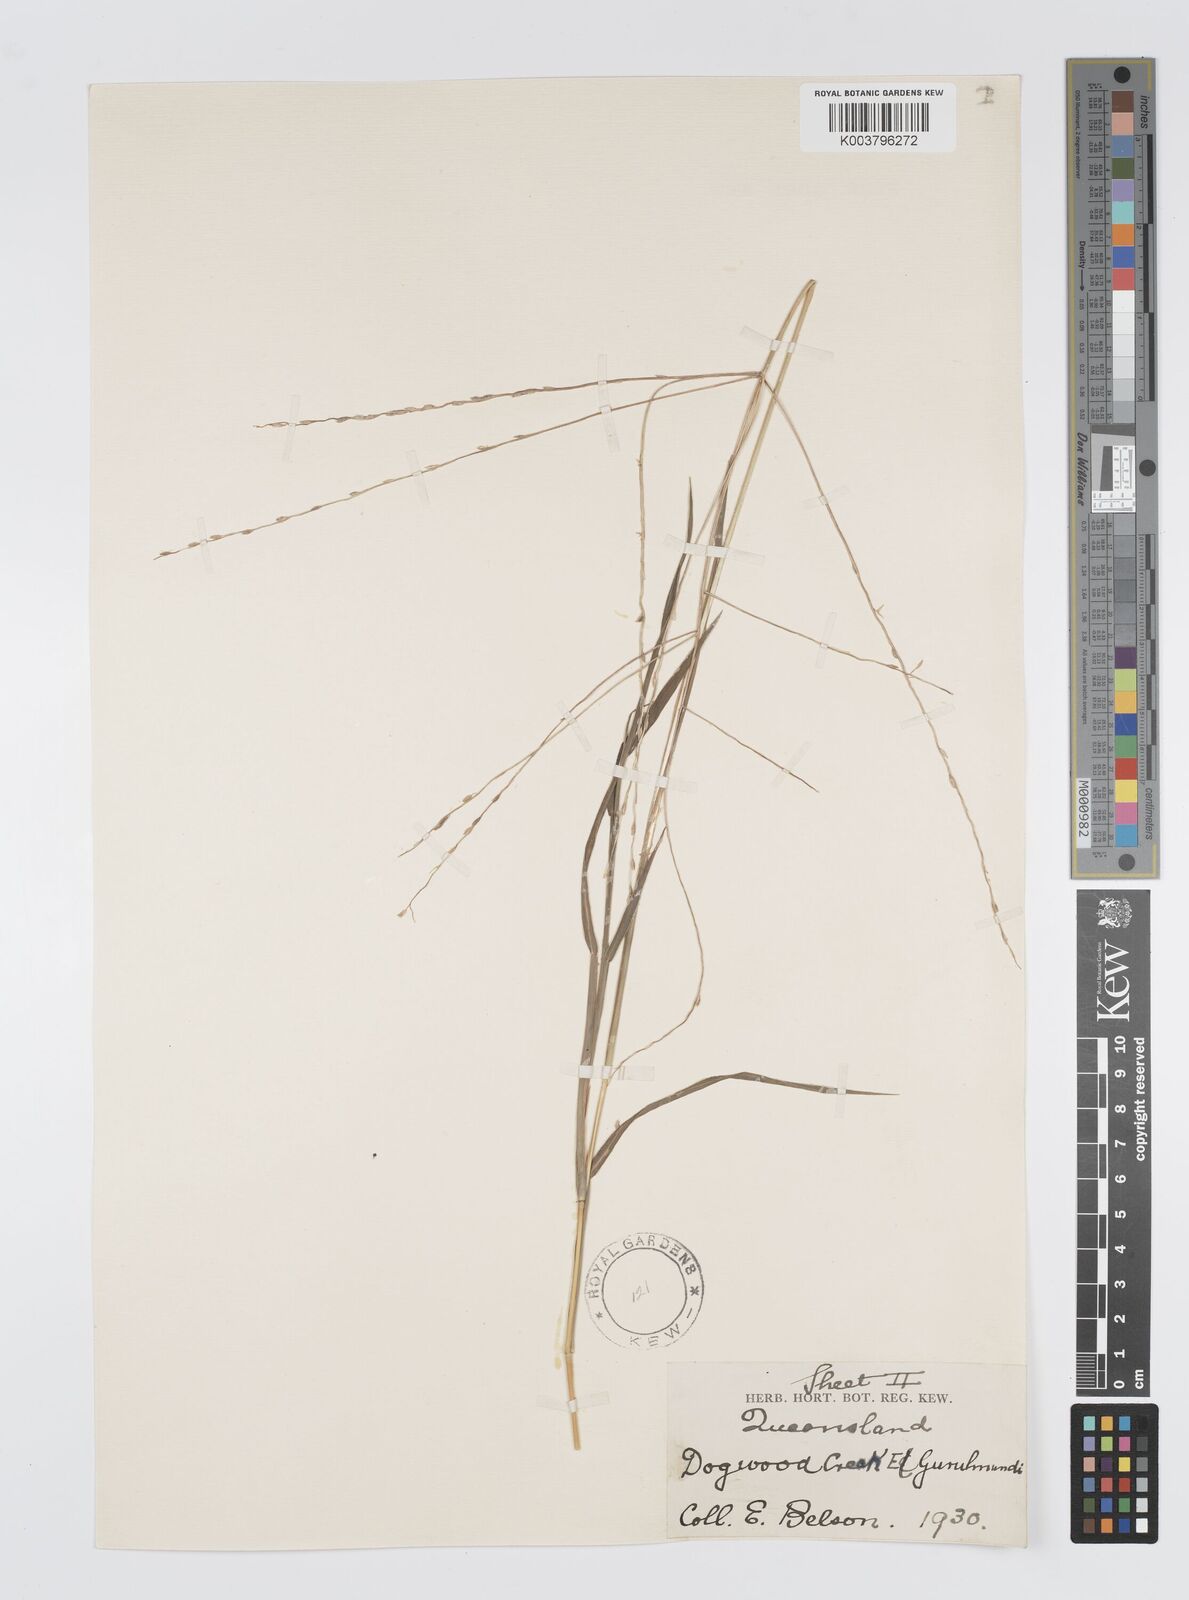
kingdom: Plantae
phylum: Tracheophyta
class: Liliopsida
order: Poales
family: Poaceae
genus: Digitaria
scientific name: Digitaria divaricatissima
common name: Crabgrass
